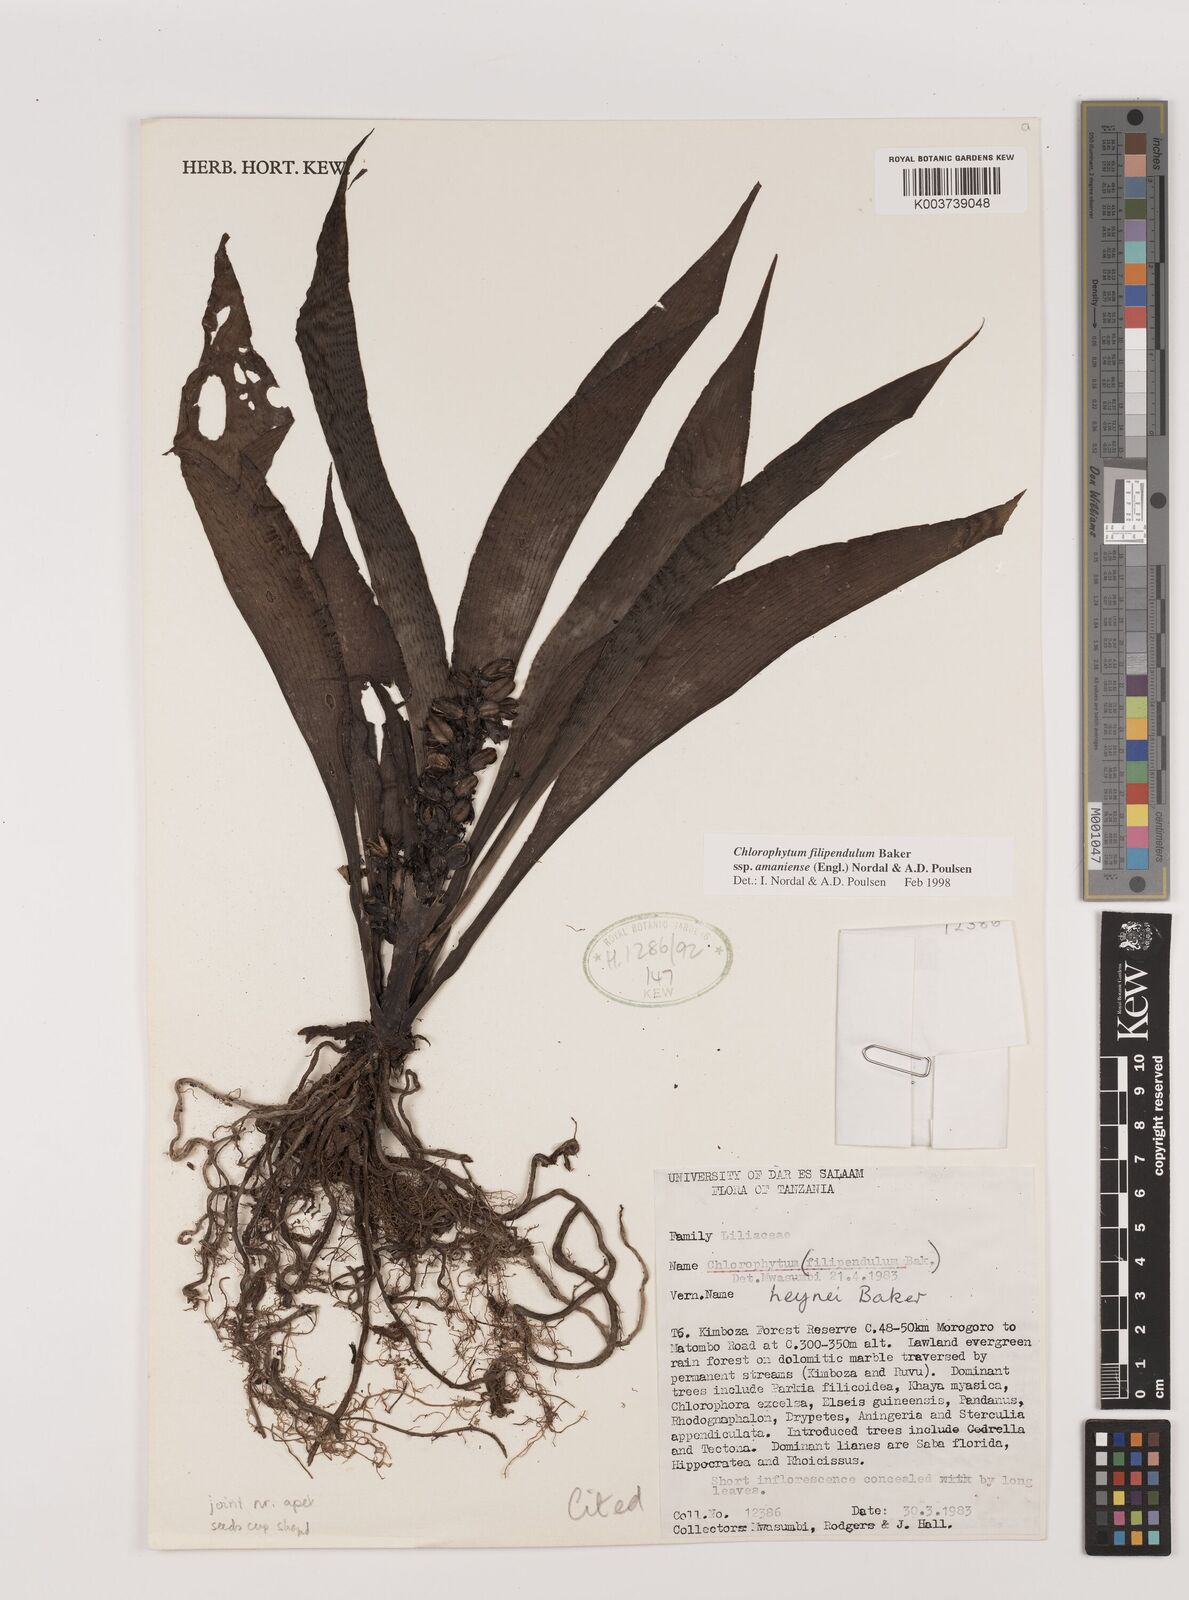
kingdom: Plantae
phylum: Tracheophyta
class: Liliopsida
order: Asparagales
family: Asparagaceae
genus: Chlorophytum
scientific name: Chlorophytum filipendulum
